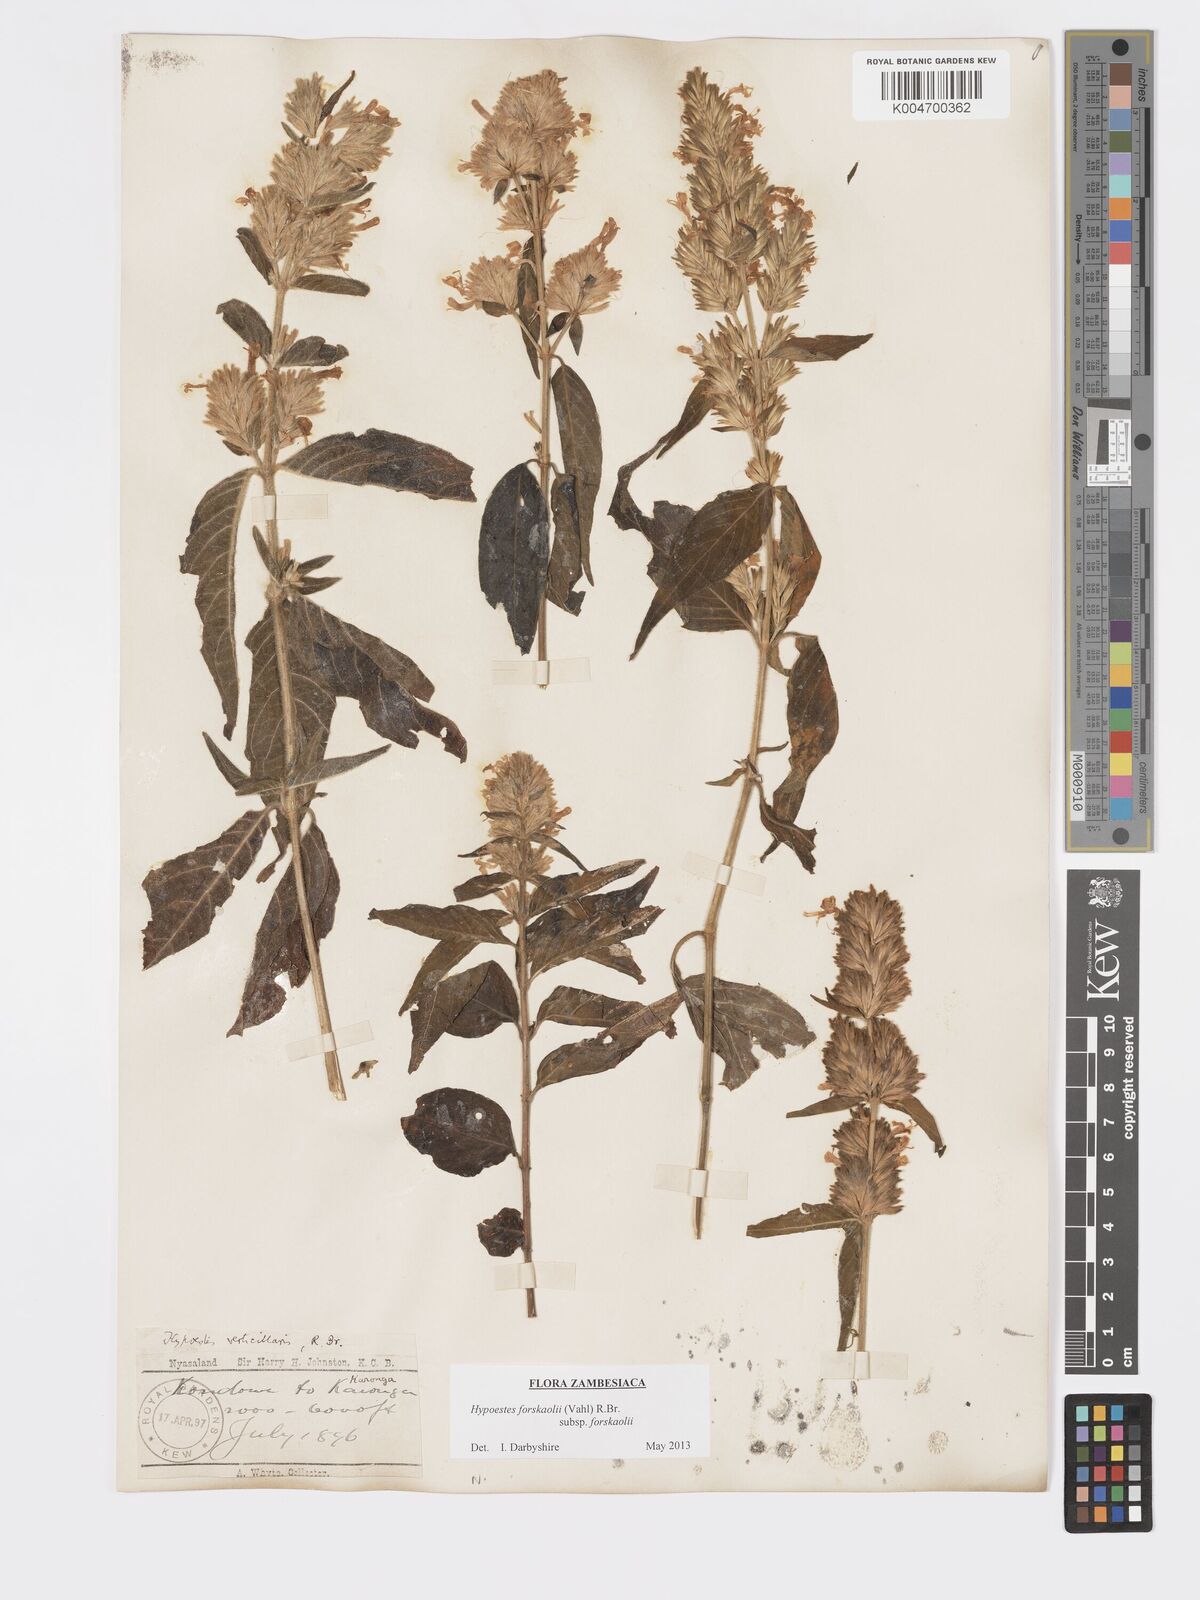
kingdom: Plantae
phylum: Tracheophyta
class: Magnoliopsida
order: Lamiales
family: Acanthaceae
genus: Hypoestes
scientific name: Hypoestes forskaolii
